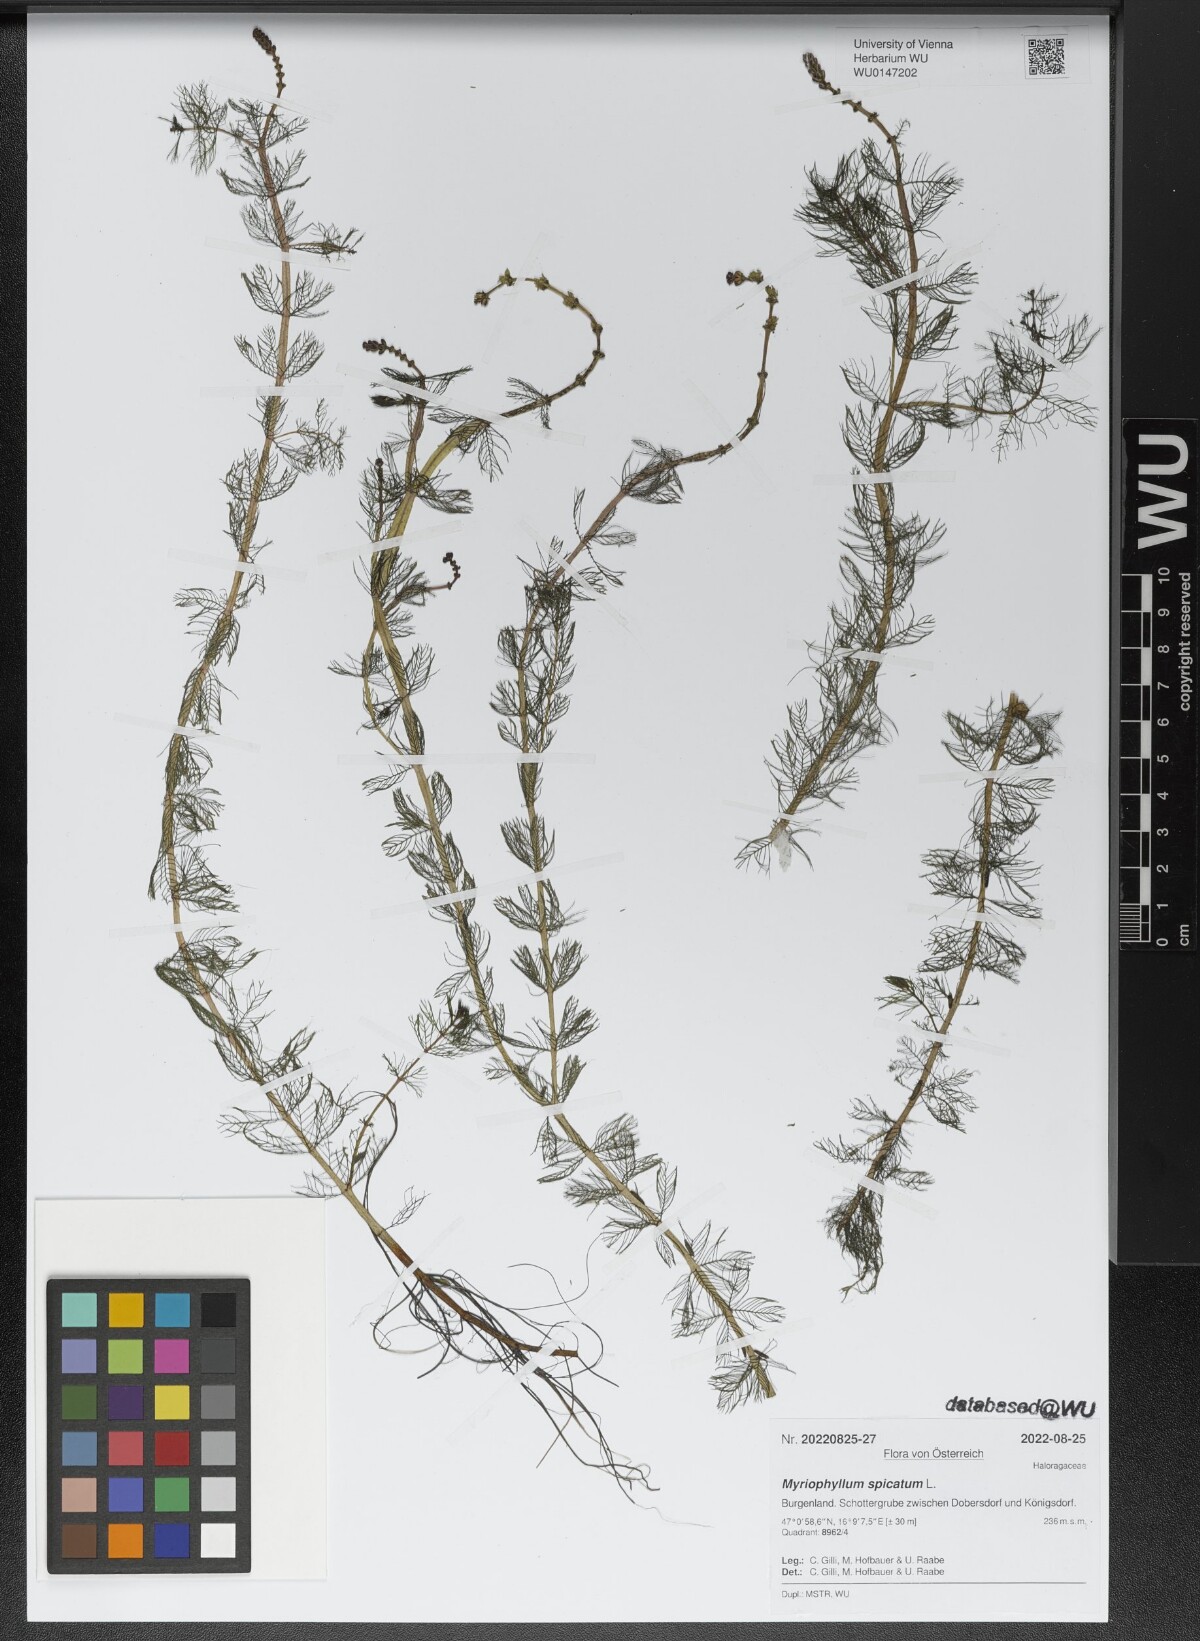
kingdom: Plantae
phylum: Tracheophyta
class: Magnoliopsida
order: Saxifragales
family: Haloragaceae
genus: Myriophyllum
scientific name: Myriophyllum spicatum
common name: Spiked water-milfoil
